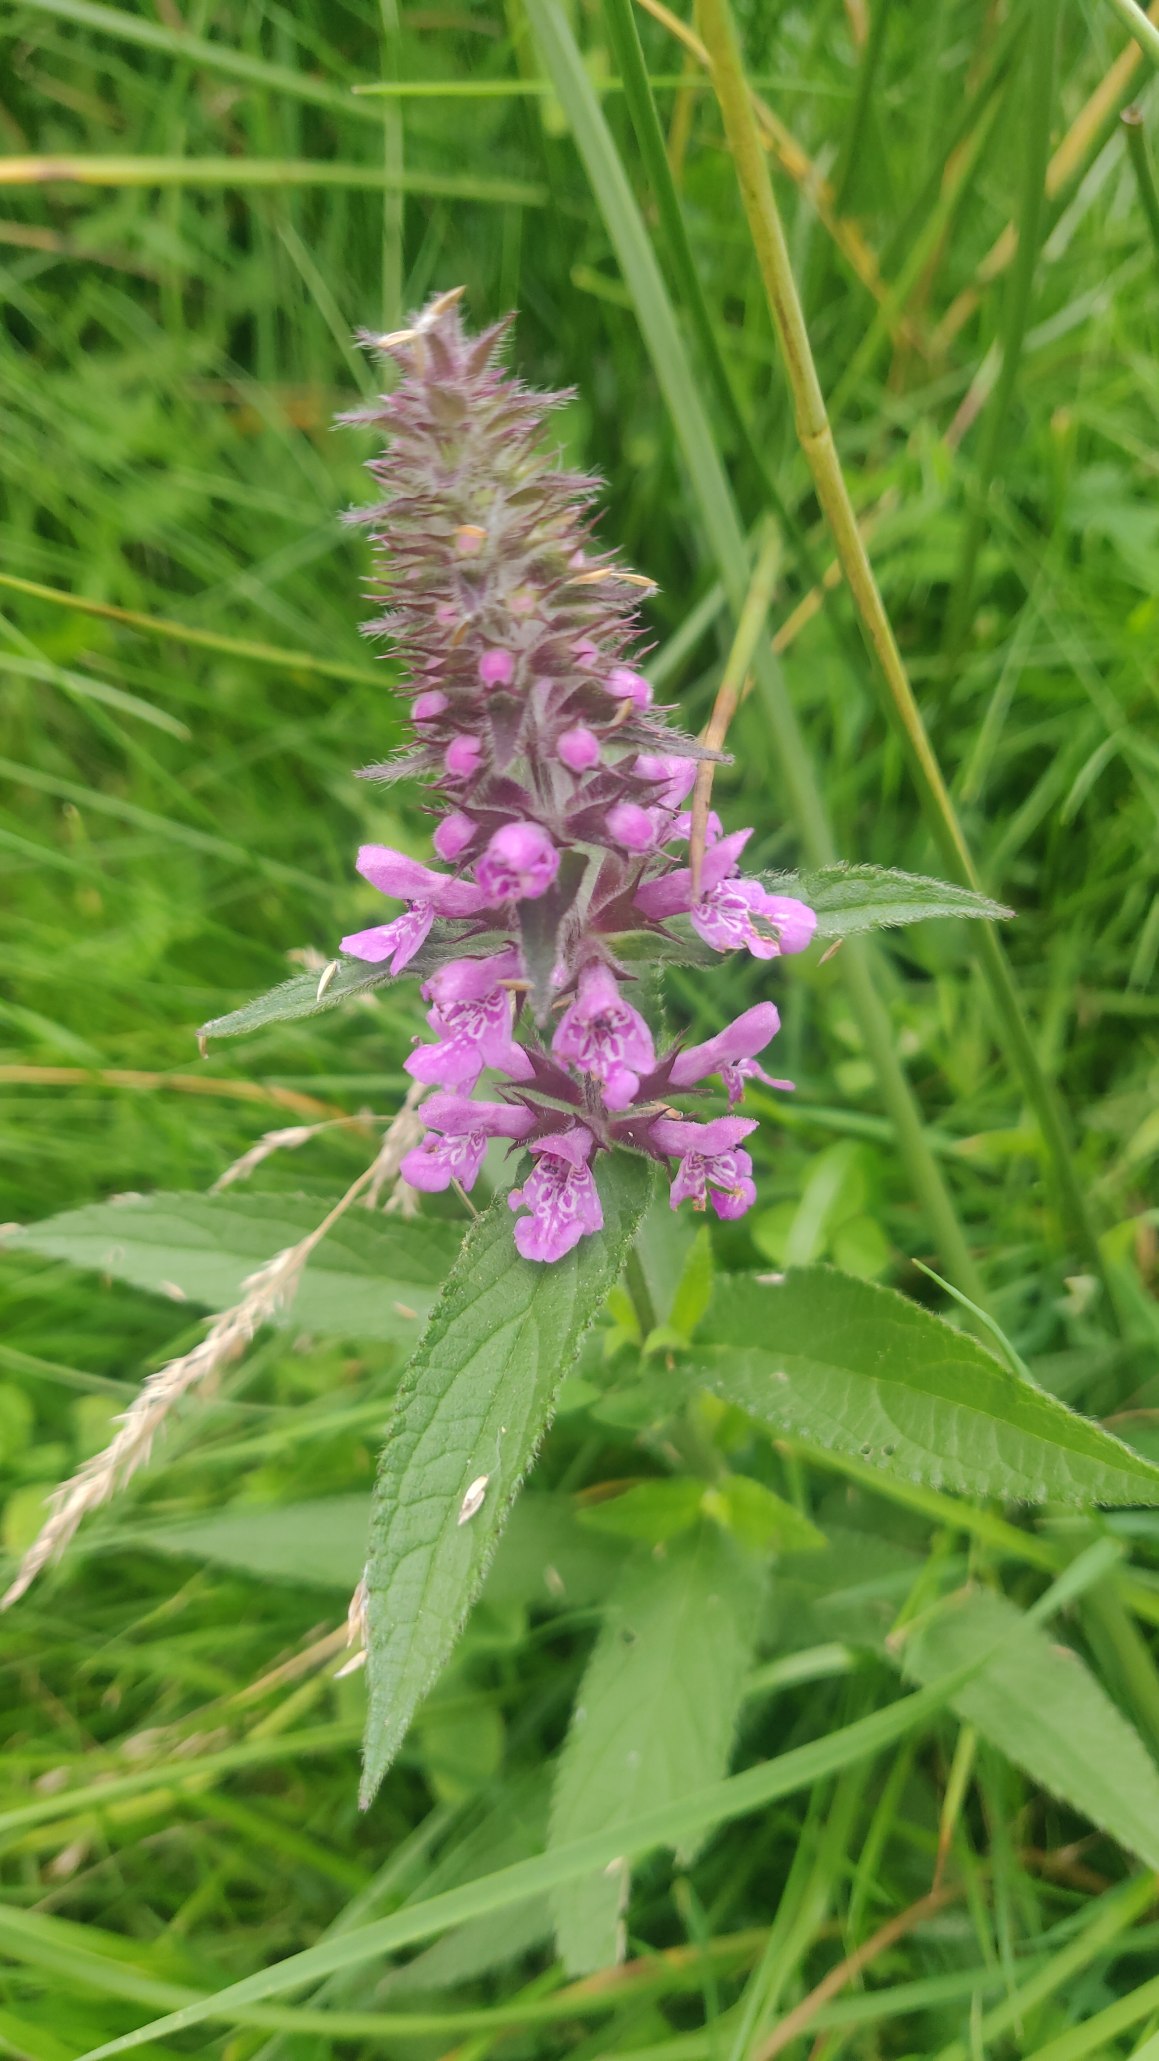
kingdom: Plantae
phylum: Tracheophyta
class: Magnoliopsida
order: Lamiales
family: Lamiaceae
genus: Stachys
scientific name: Stachys palustris
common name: Kær-galtetand
